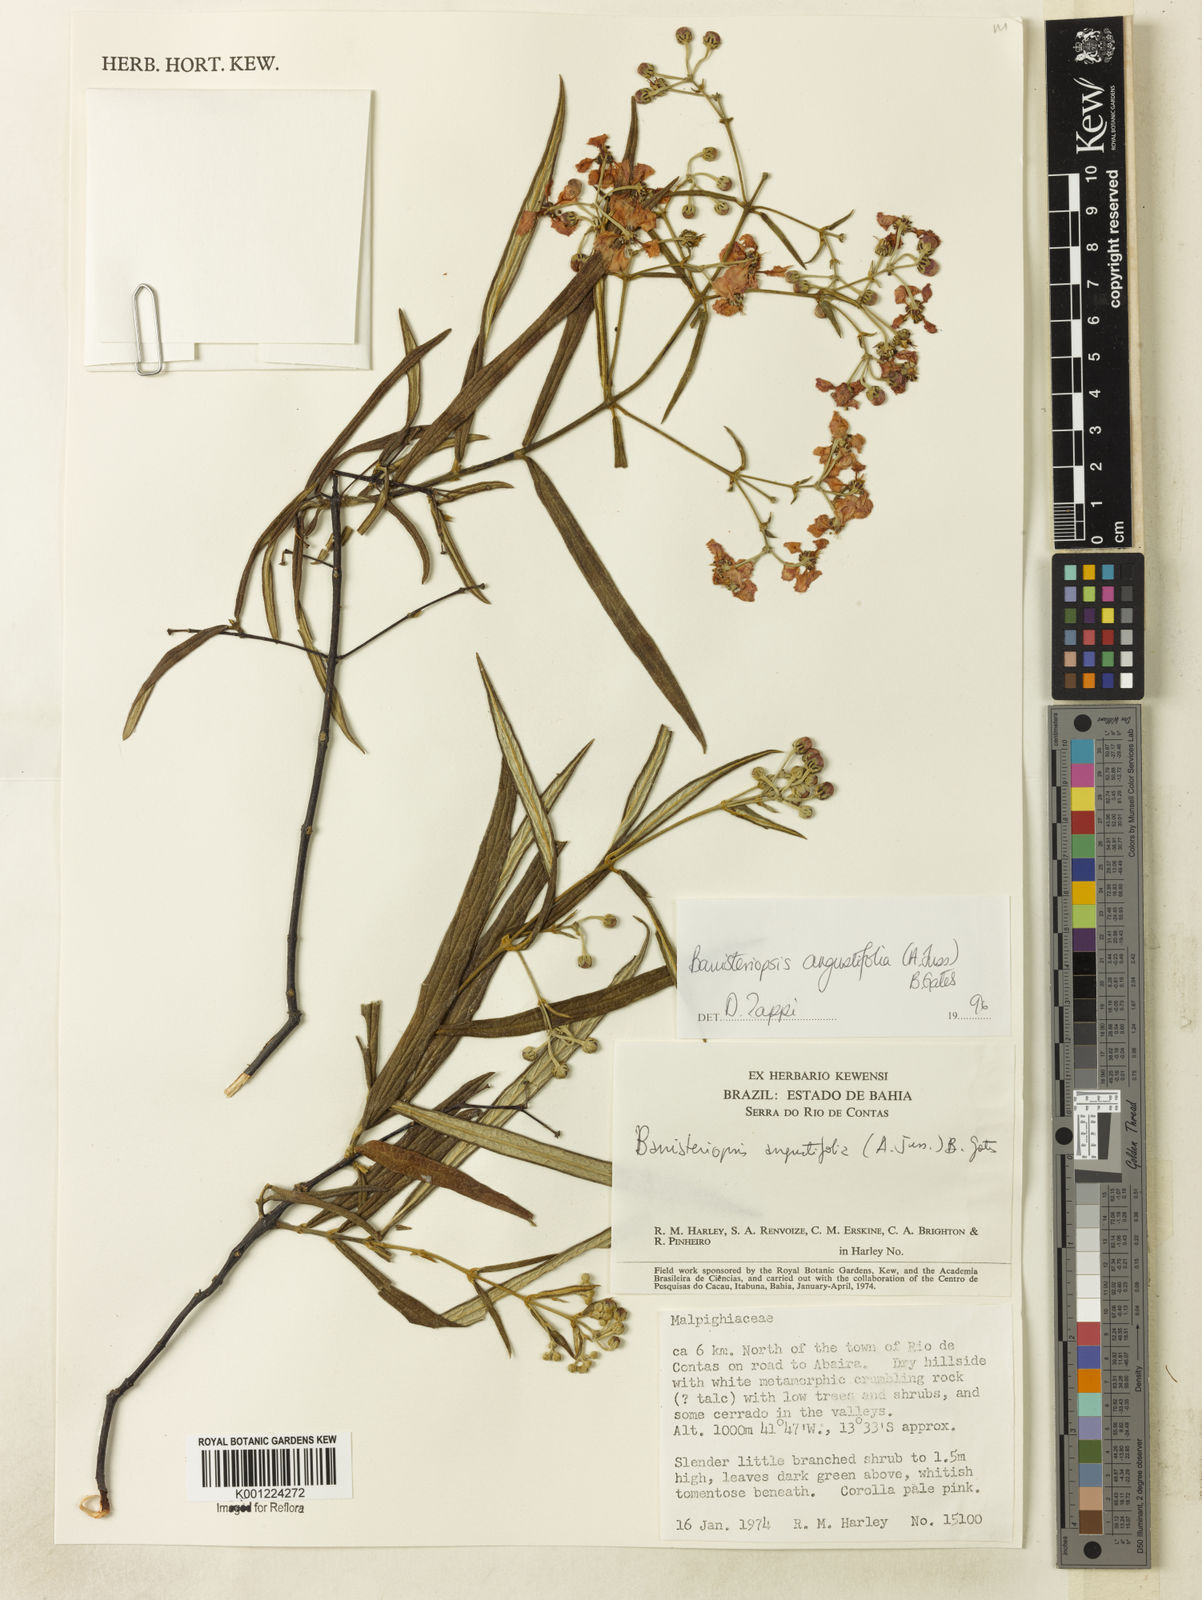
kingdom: Plantae
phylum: Tracheophyta
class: Magnoliopsida
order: Malpighiales
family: Malpighiaceae
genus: Banisteriopsis
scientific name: Banisteriopsis angustifolia
